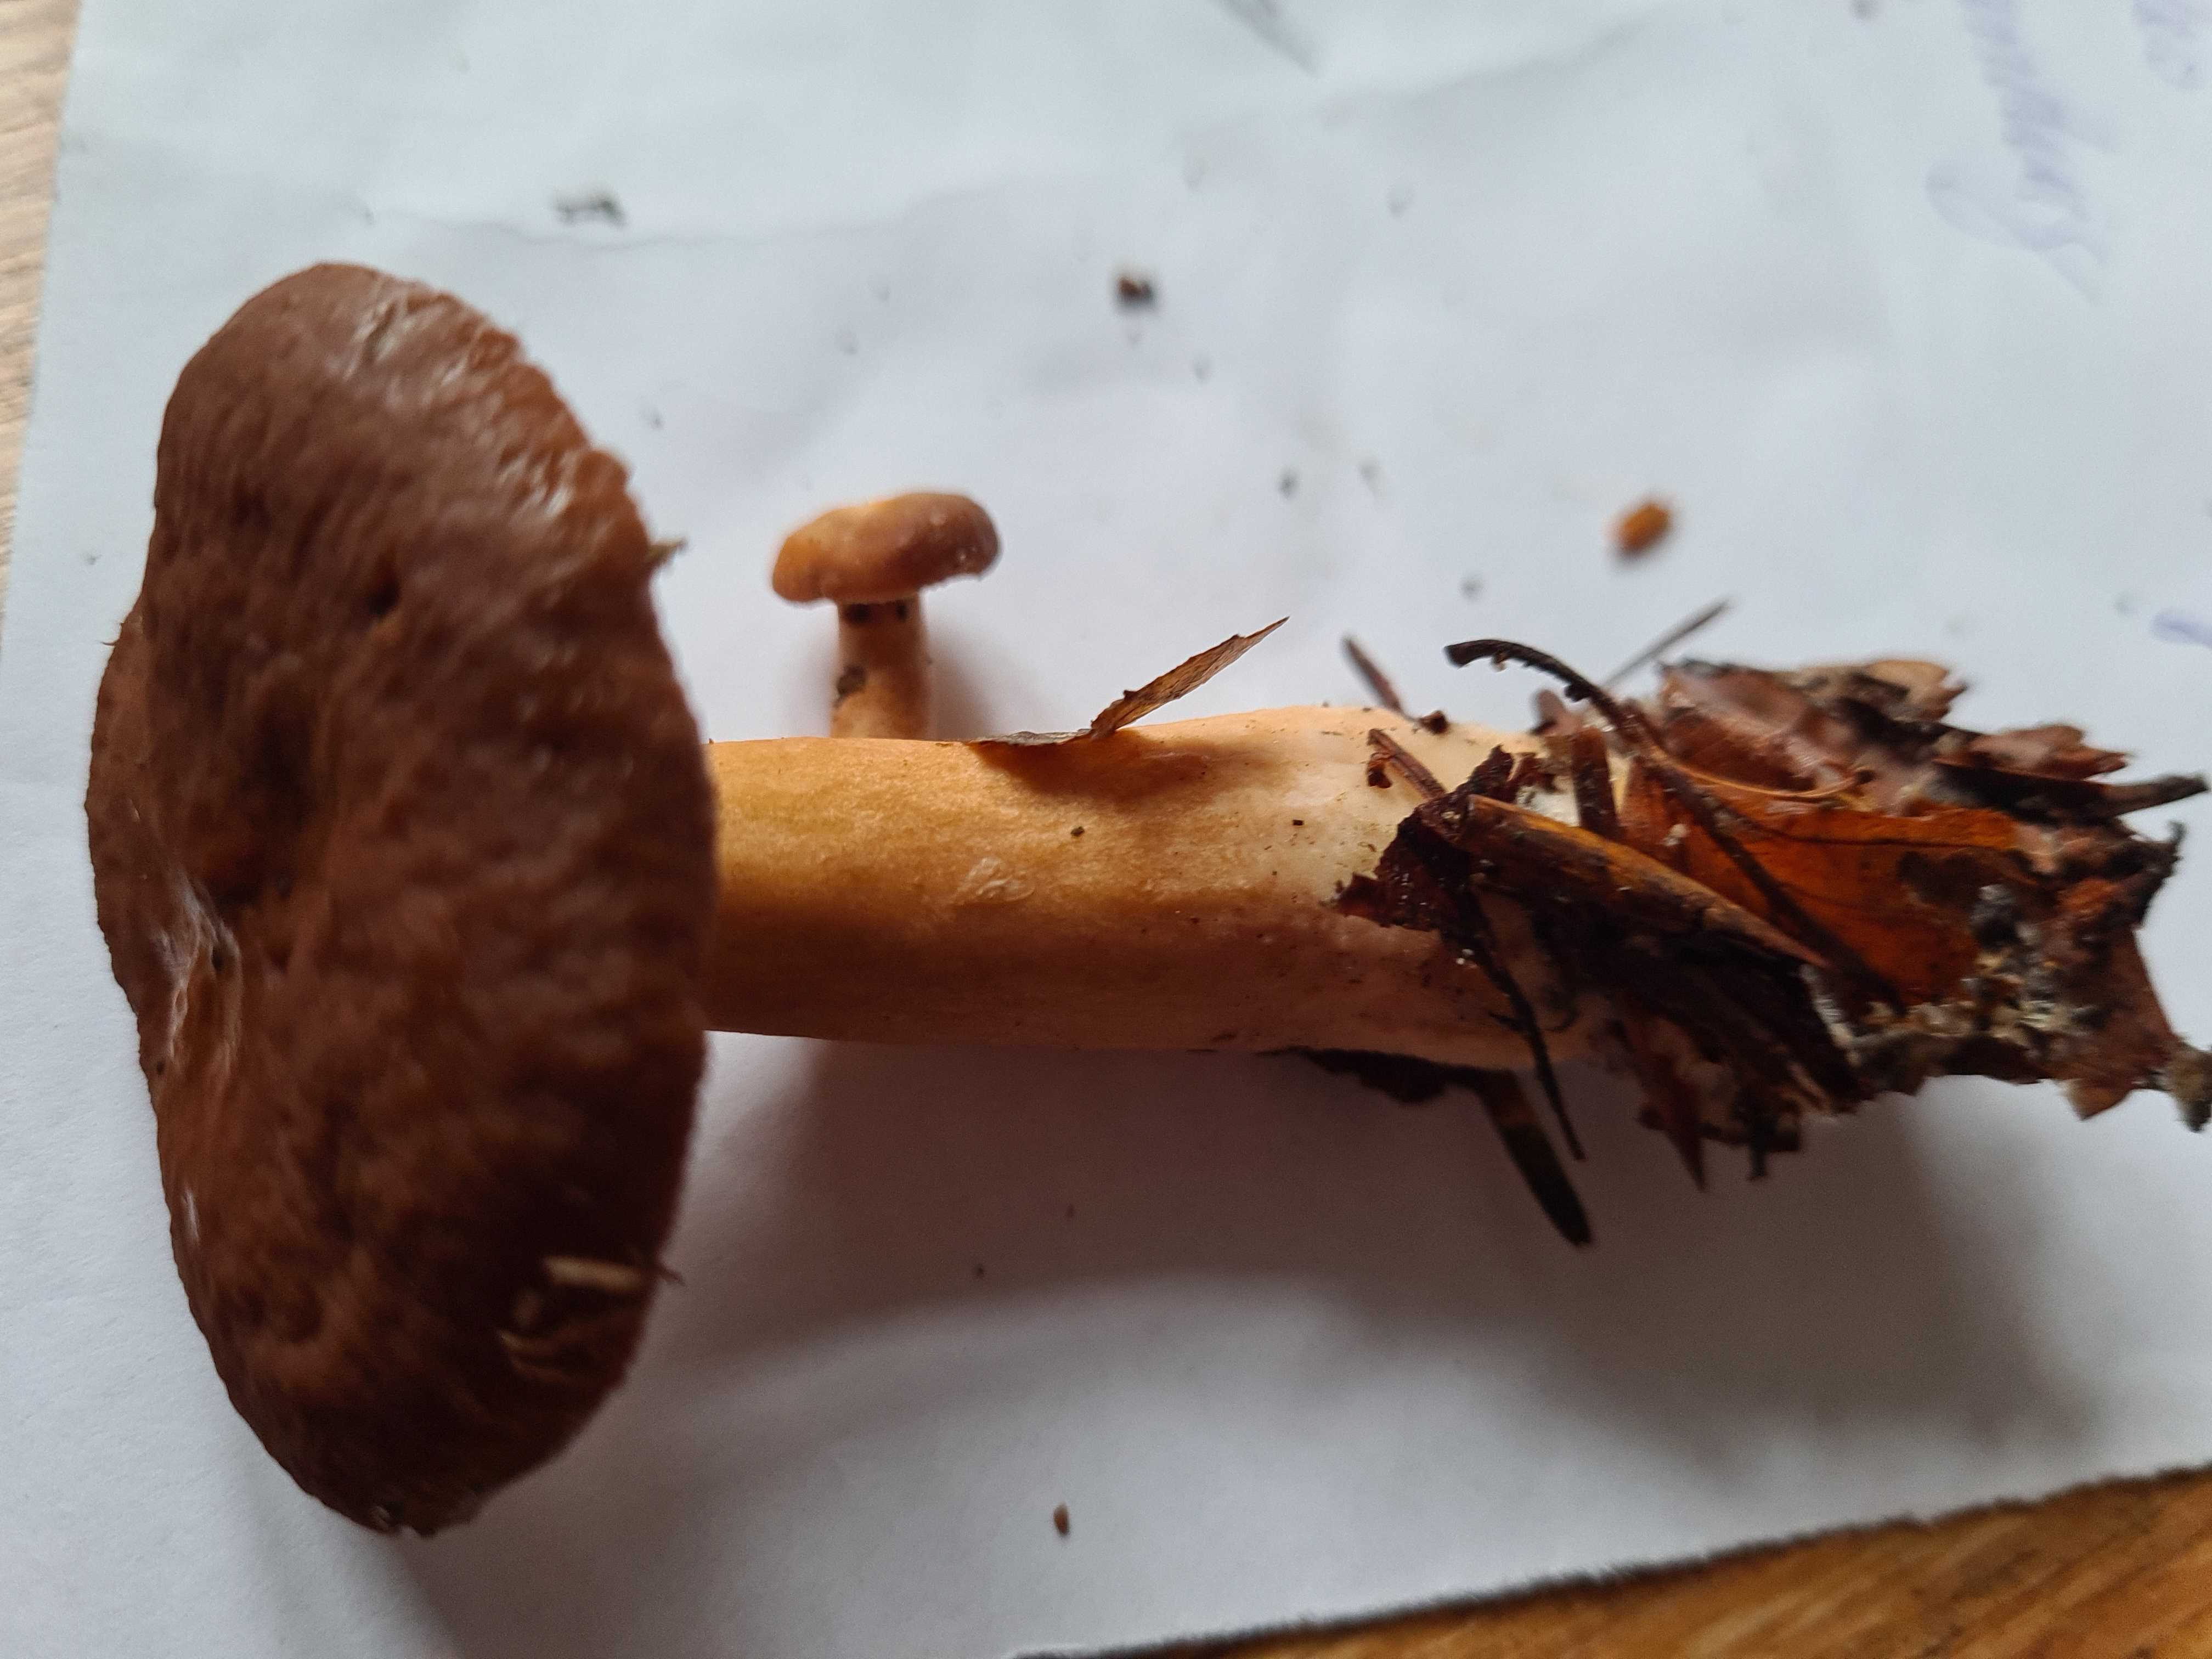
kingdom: Fungi
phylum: Basidiomycota
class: Agaricomycetes
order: Russulales
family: Russulaceae
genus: Lactarius
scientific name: Lactarius subdulcis
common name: sødlig mælkehat
